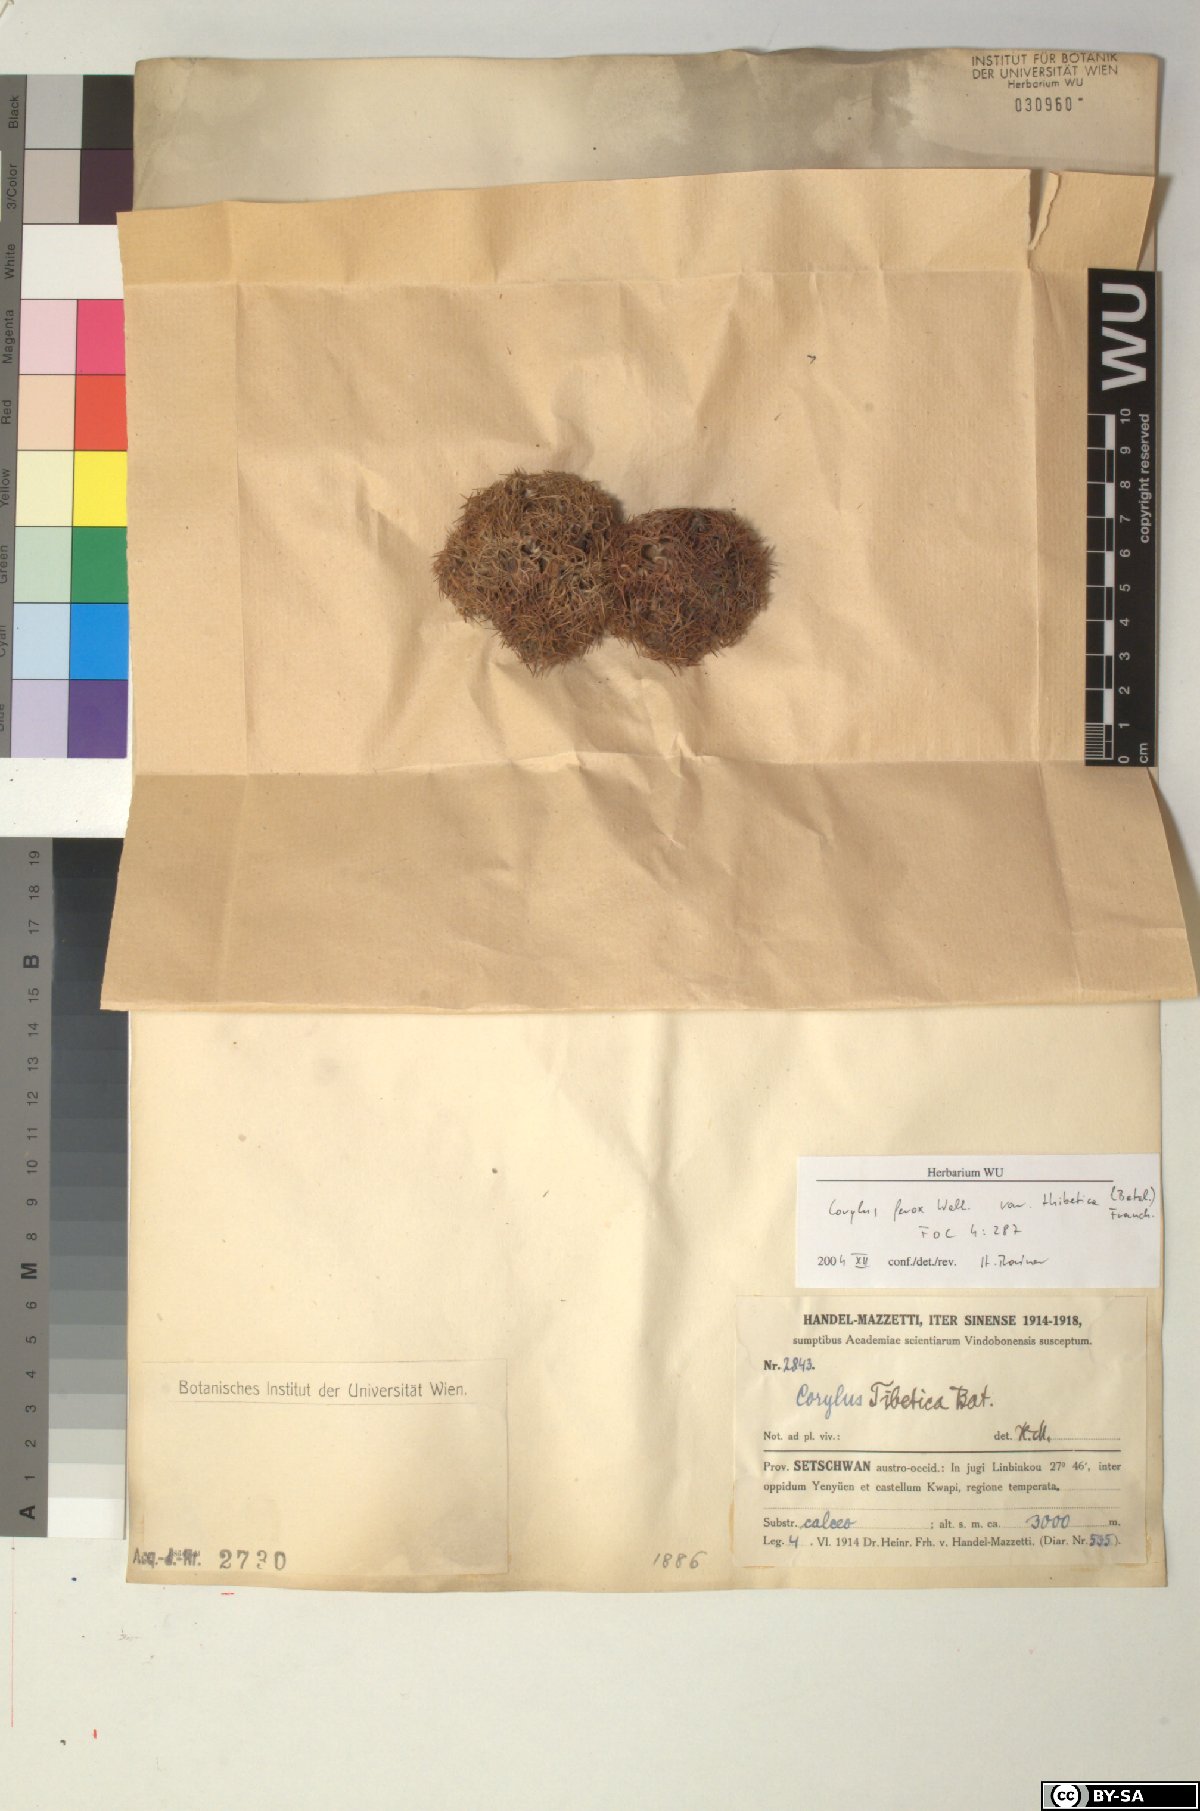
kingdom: Plantae
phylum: Tracheophyta
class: Magnoliopsida
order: Fagales
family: Betulaceae
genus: Corylus
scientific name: Corylus ferox
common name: Himalayan hazel
